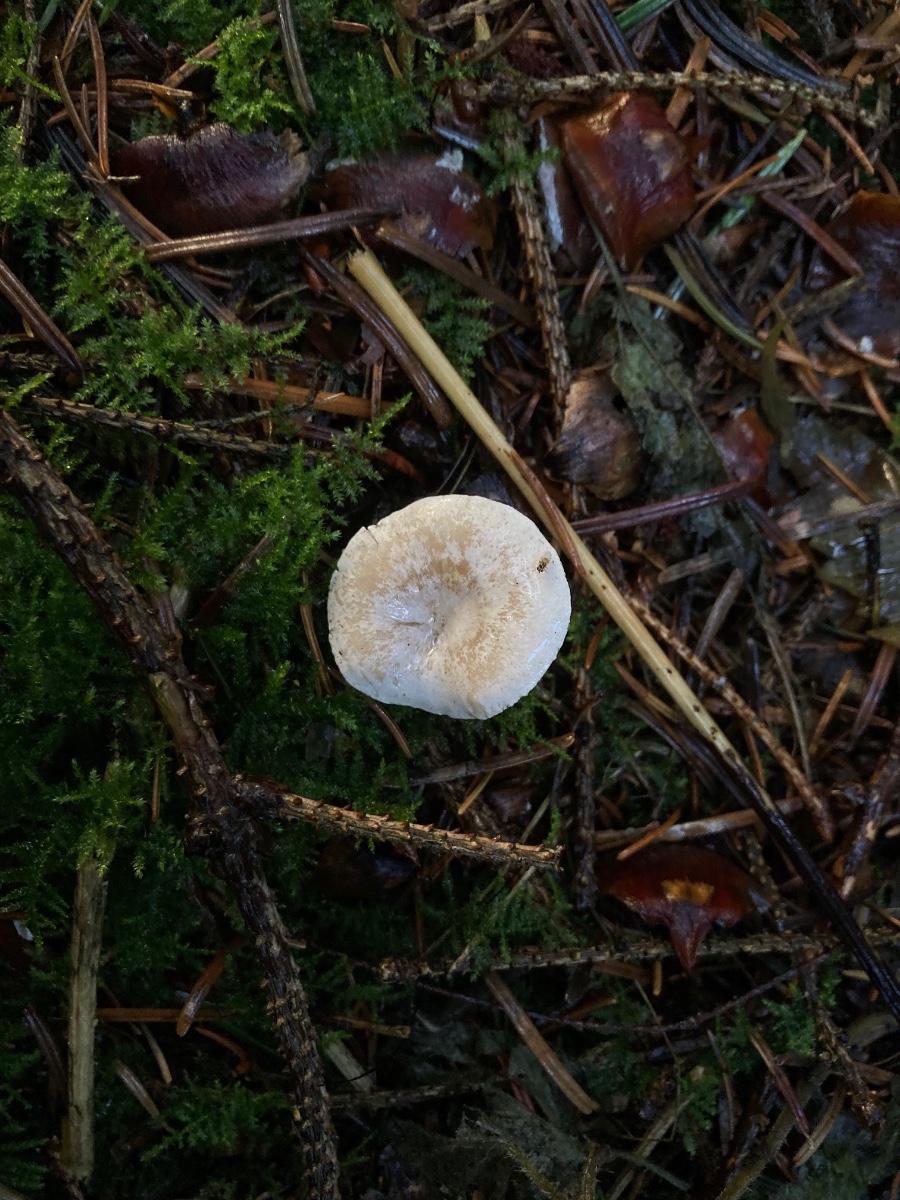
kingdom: Fungi
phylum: Basidiomycota
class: Agaricomycetes
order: Agaricales
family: Tricholomataceae
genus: Ripartites
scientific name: Ripartites tricholoma
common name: almindelig skæghat
